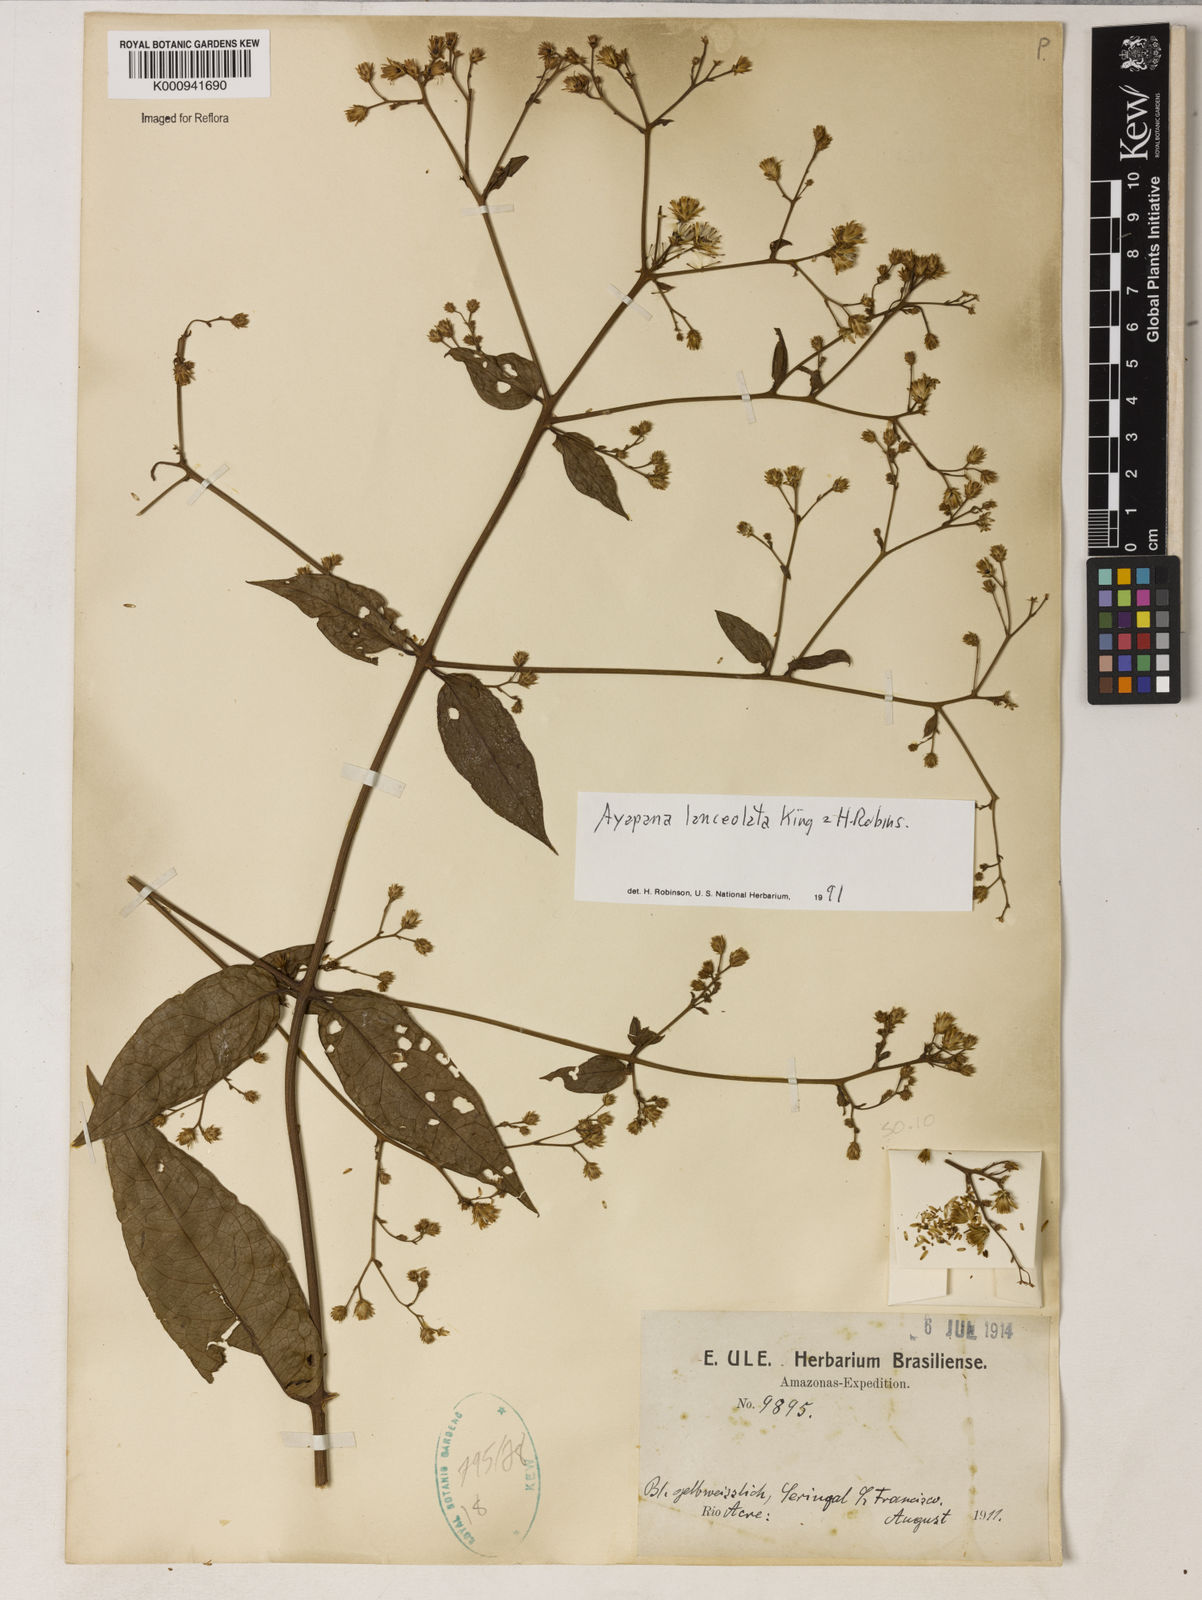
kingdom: Plantae
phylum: Tracheophyta
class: Magnoliopsida
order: Asterales
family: Asteraceae
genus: Ayapana
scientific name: Ayapana lanceolata
